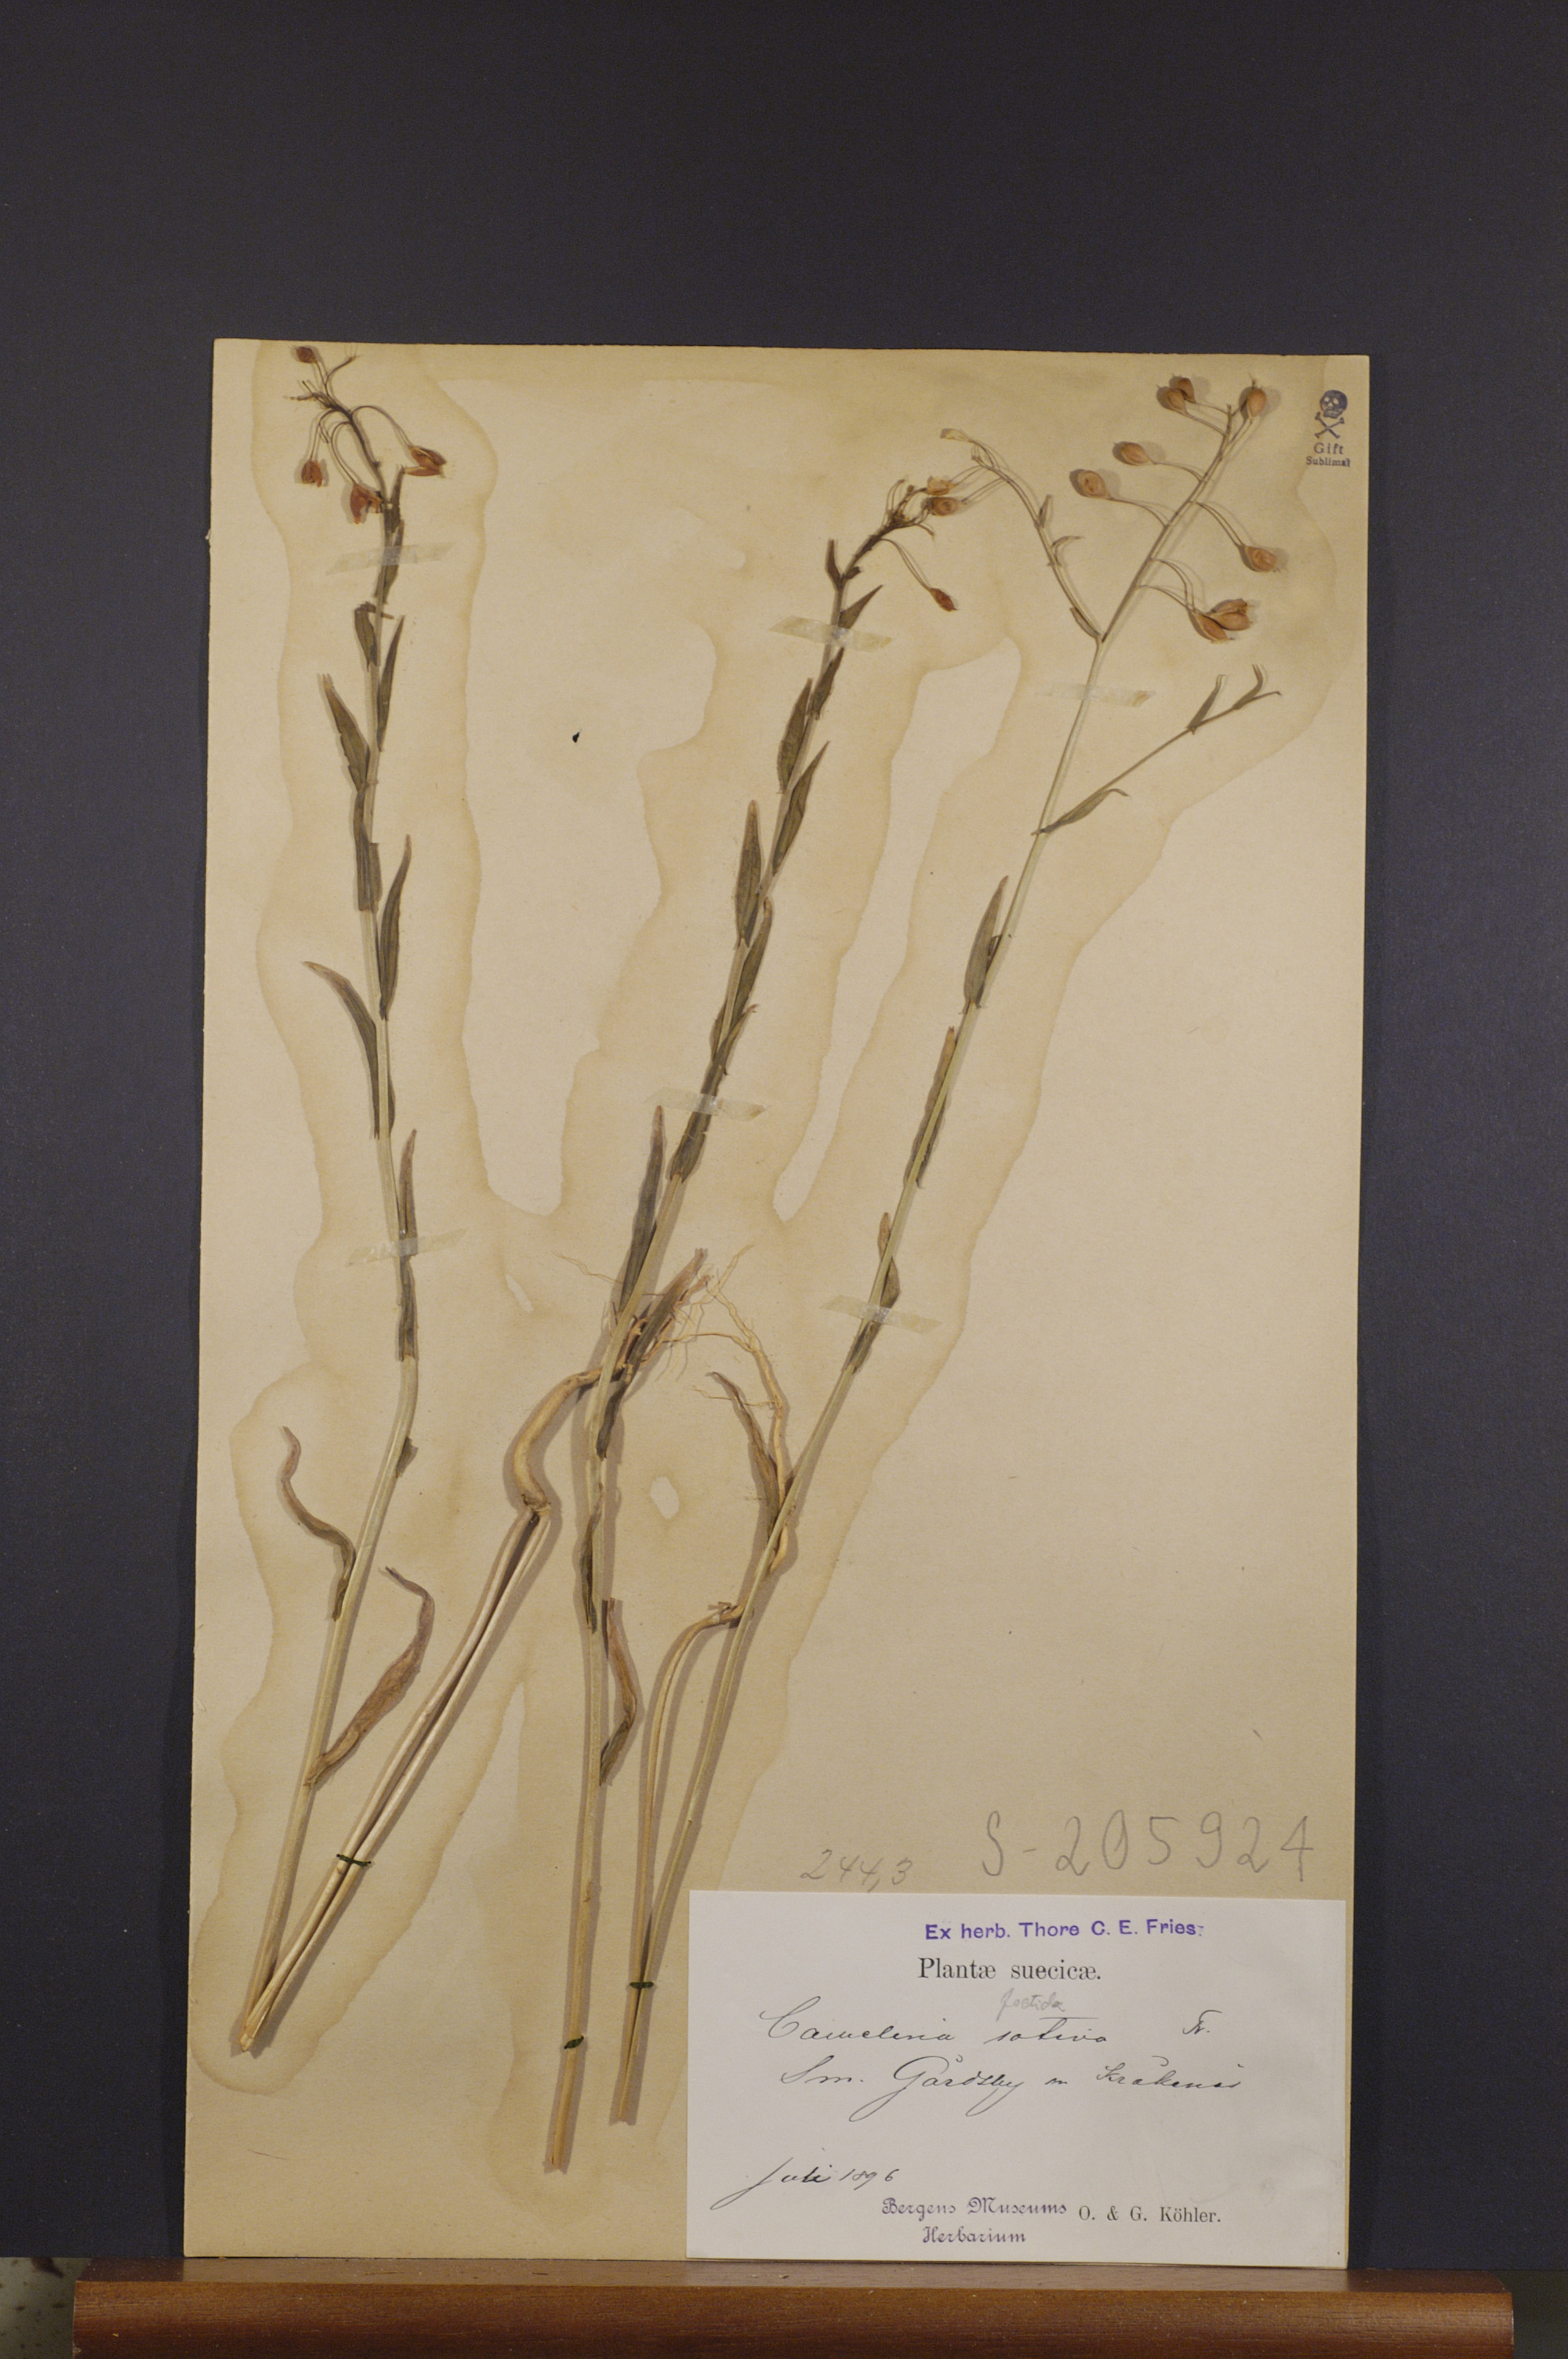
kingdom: Plantae
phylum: Tracheophyta
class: Magnoliopsida
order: Brassicales
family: Brassicaceae
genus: Camelina
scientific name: Camelina sativa
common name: Gold-of-pleasure
